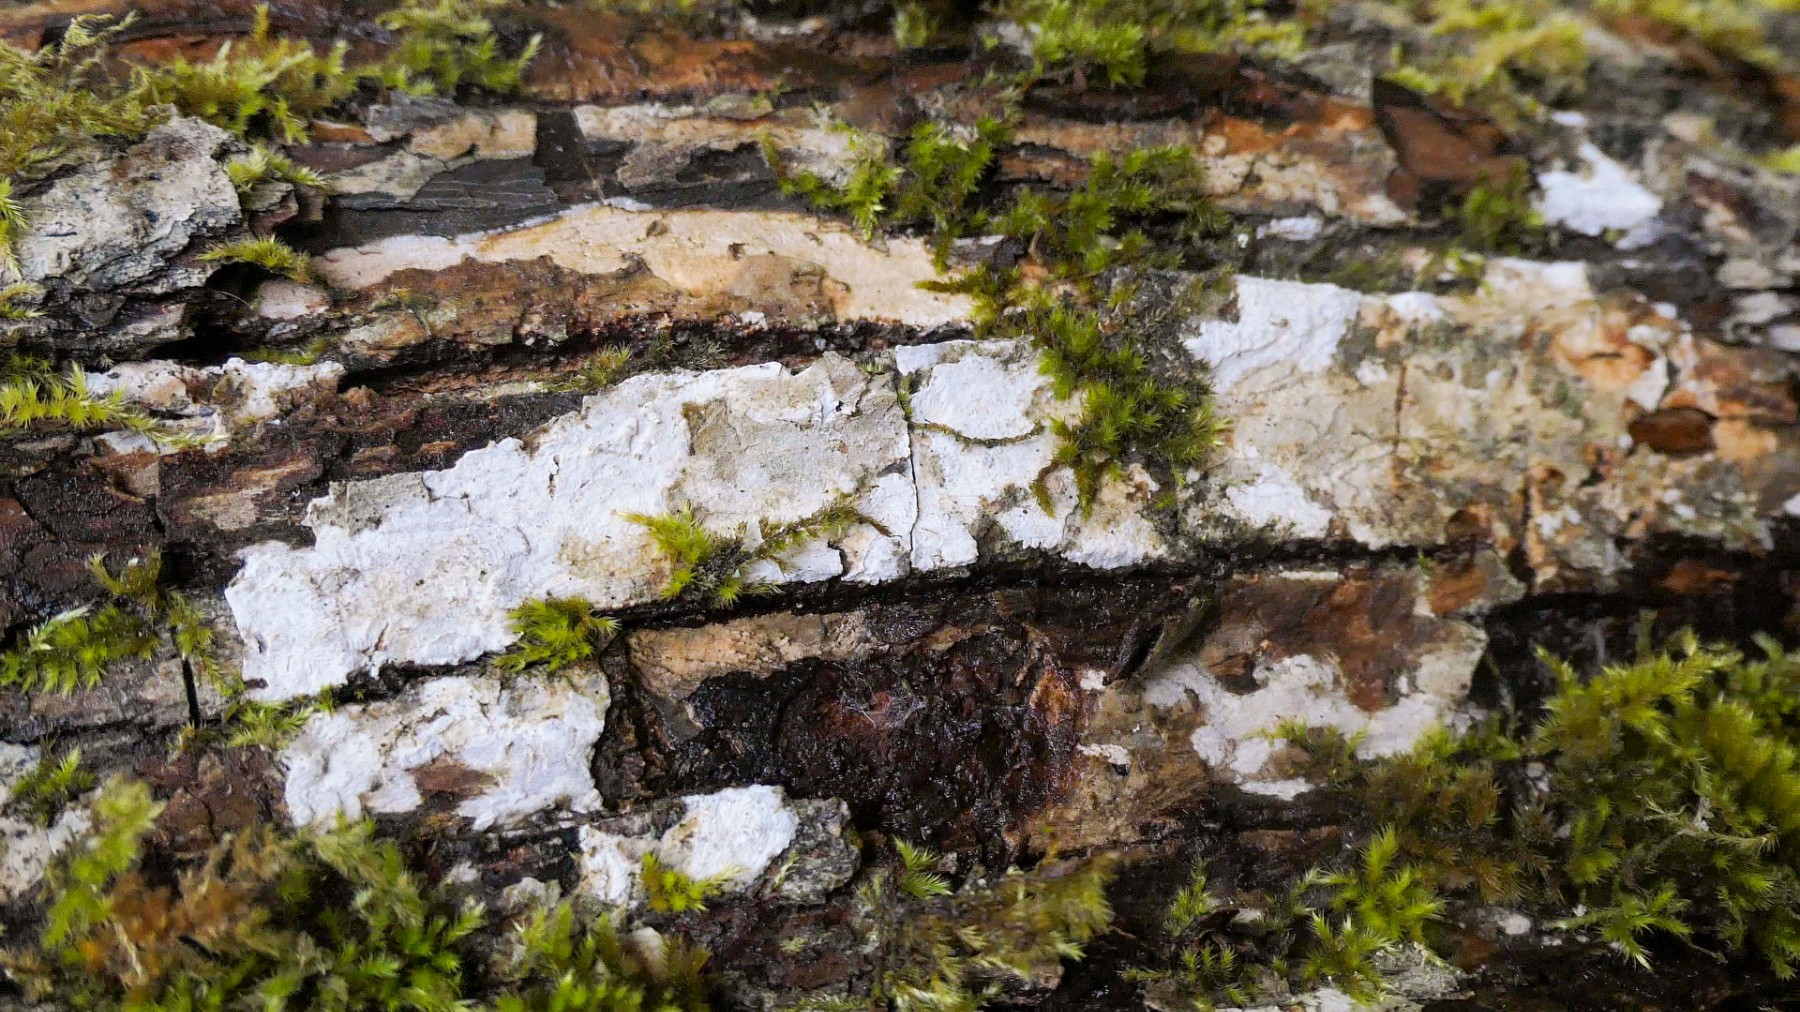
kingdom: Fungi
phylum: Basidiomycota
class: Agaricomycetes
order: Agaricales
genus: Dendrothele
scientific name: Dendrothele acerina
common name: navr-kalkplet
